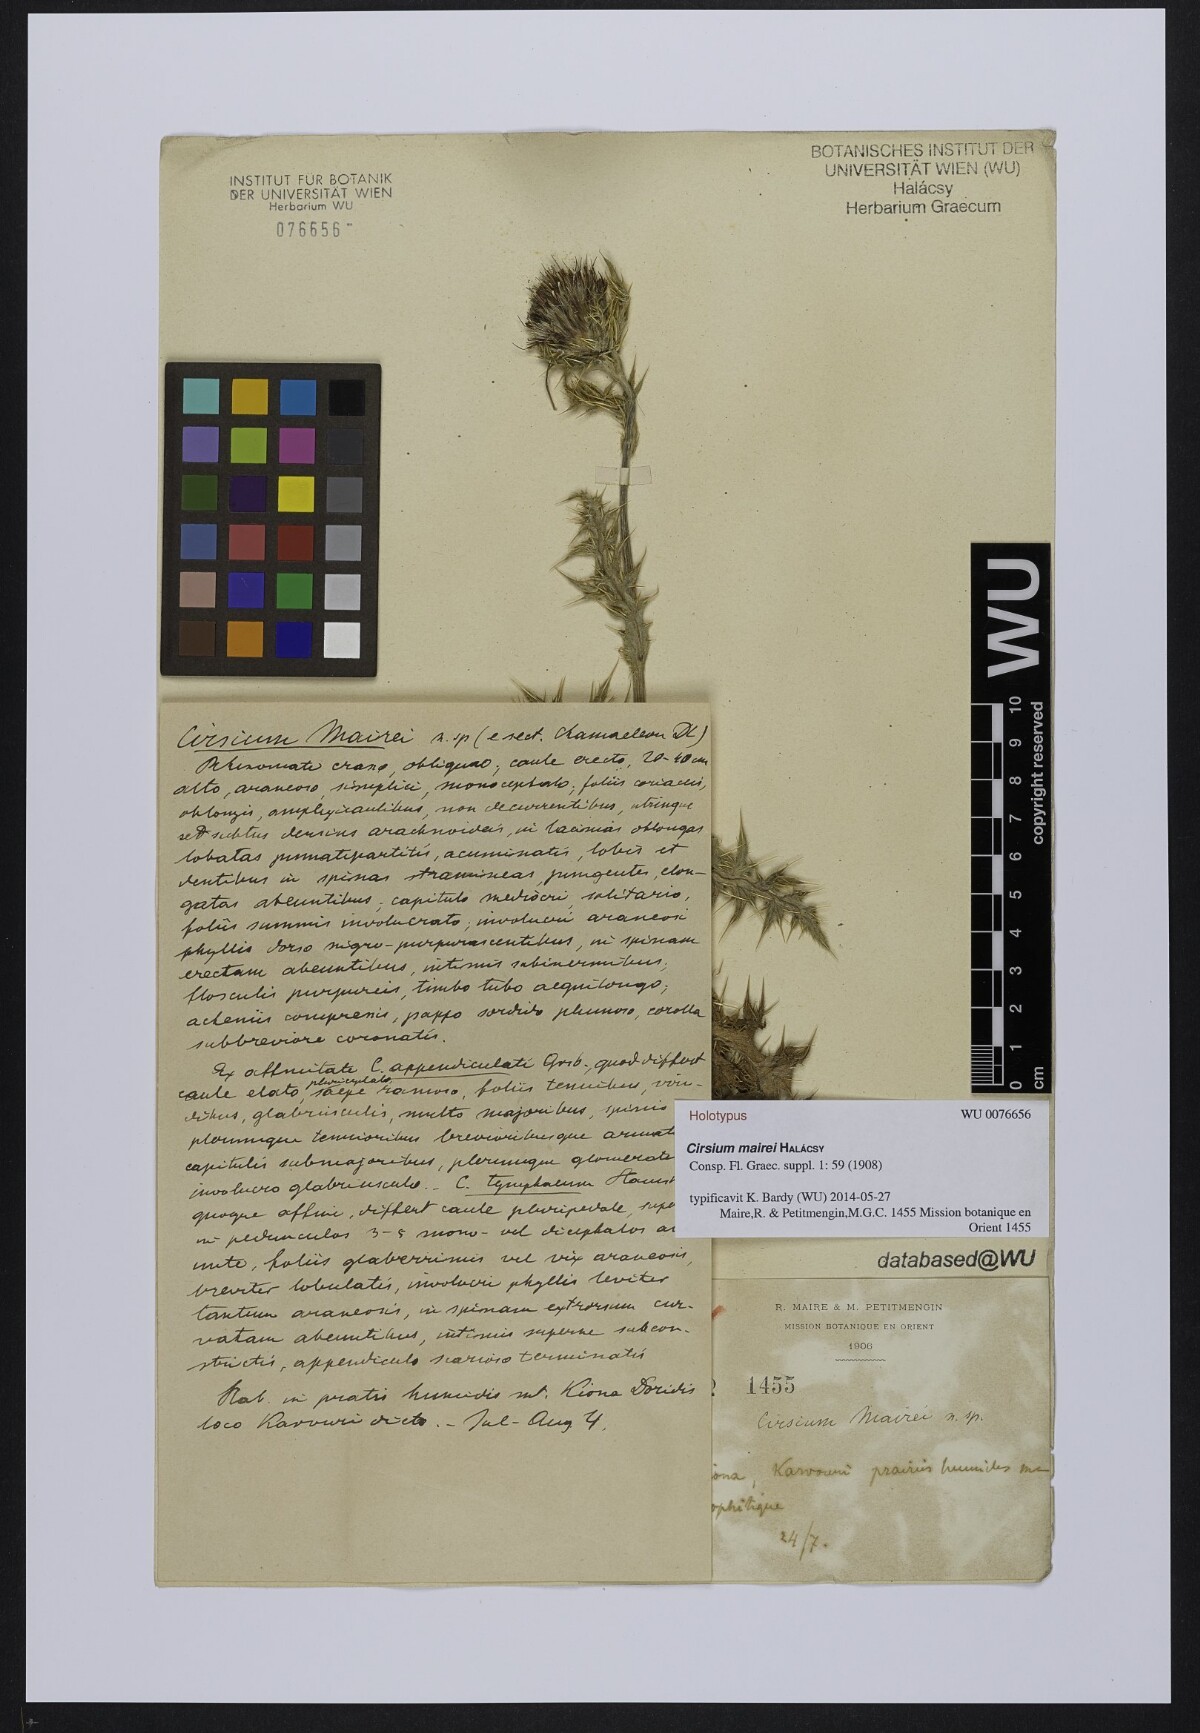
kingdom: Plantae
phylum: Tracheophyta
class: Magnoliopsida
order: Asterales
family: Asteraceae
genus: Lophiolepis
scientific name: Lophiolepis mairei
